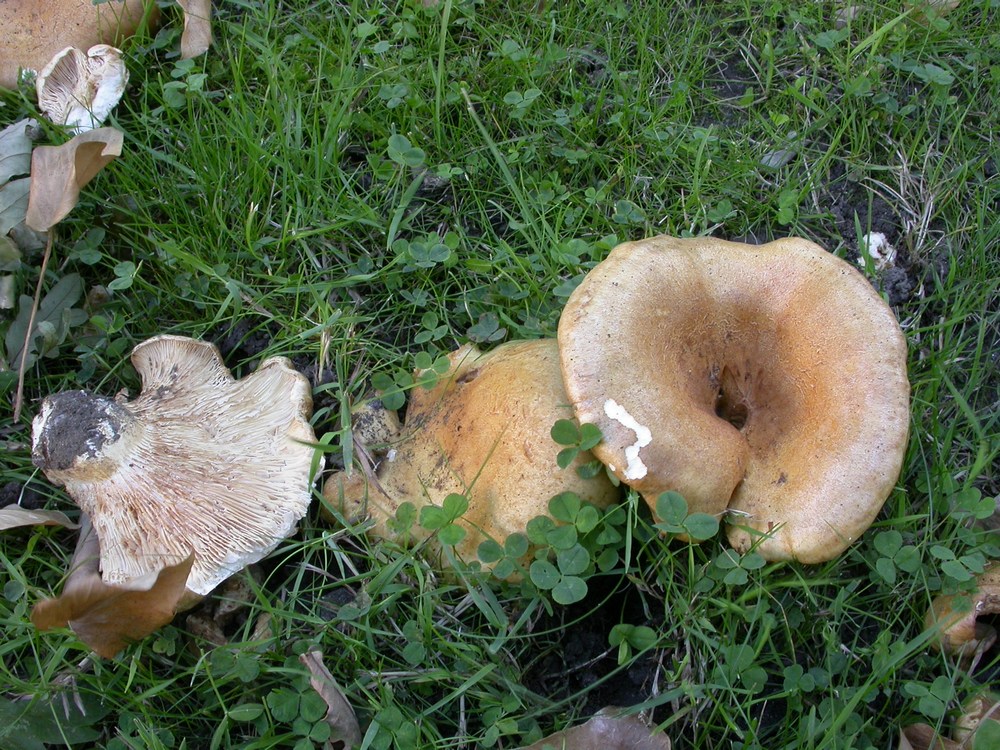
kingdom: Fungi
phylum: Basidiomycota
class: Agaricomycetes
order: Russulales
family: Russulaceae
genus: Lactarius
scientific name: Lactarius acerrimus
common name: brændende mælkehat
